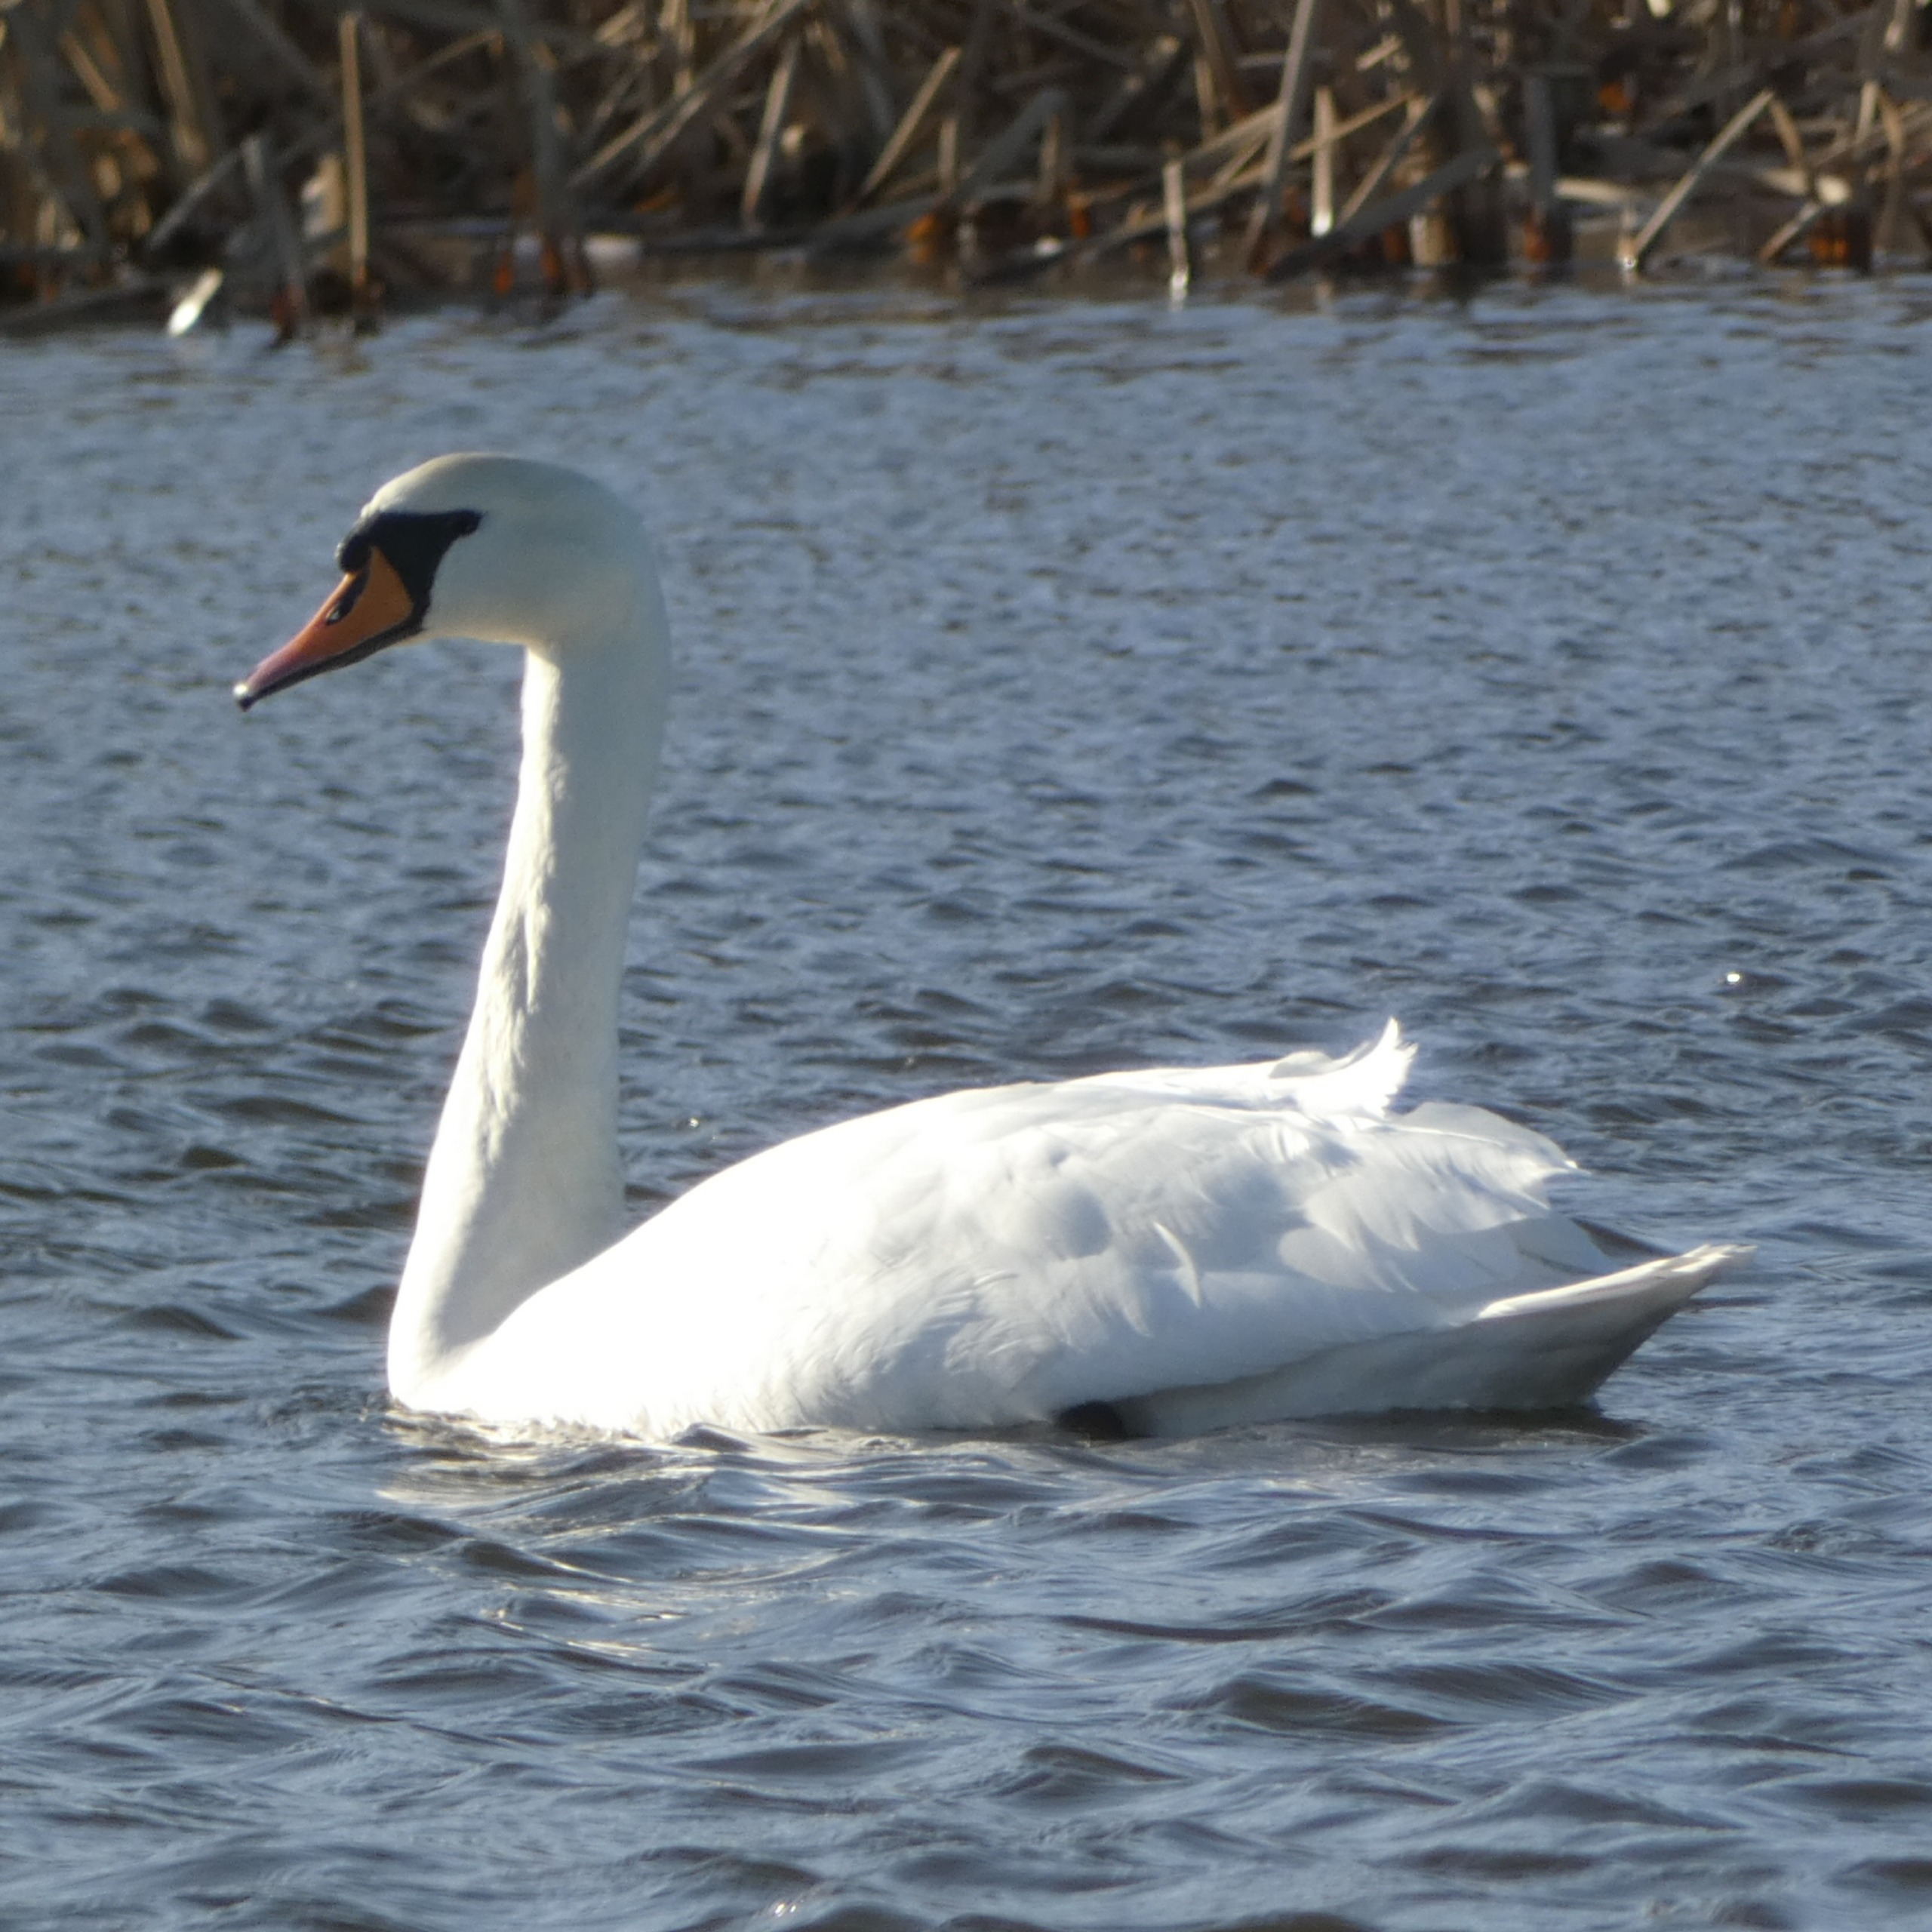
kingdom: Animalia
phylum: Chordata
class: Aves
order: Anseriformes
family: Anatidae
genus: Cygnus
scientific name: Cygnus olor
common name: Knopsvane
